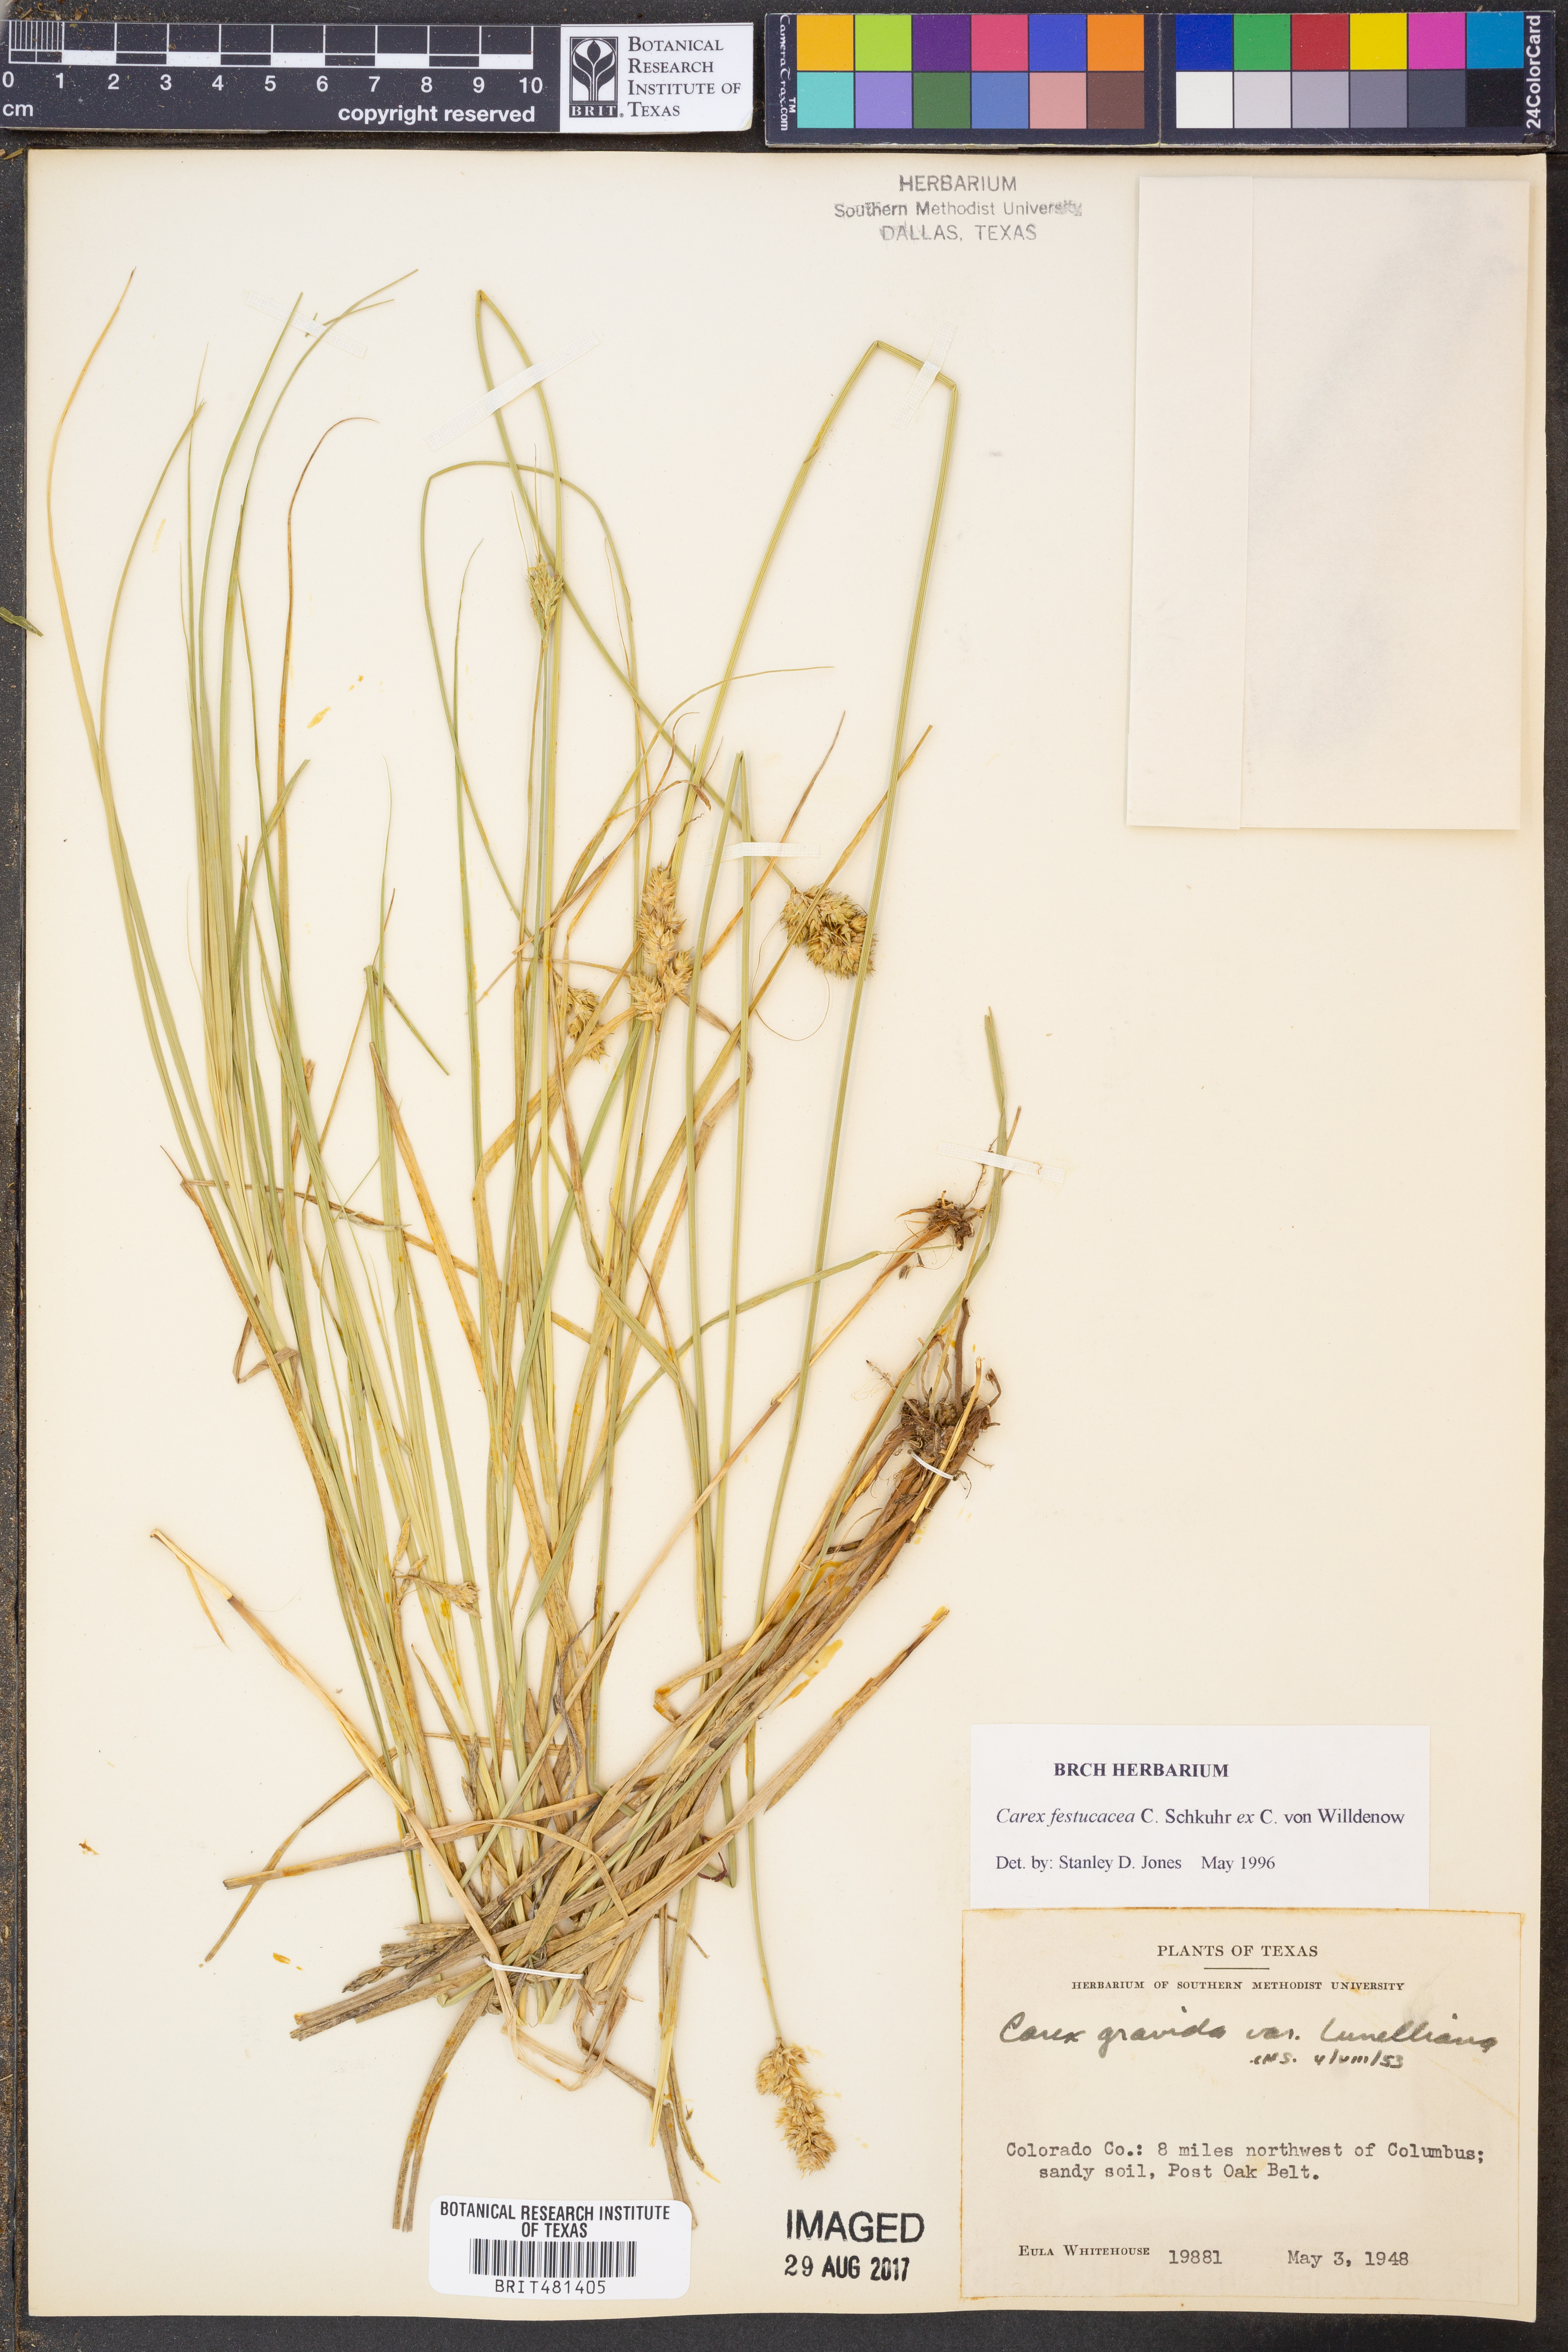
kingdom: Plantae
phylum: Tracheophyta
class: Liliopsida
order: Poales
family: Cyperaceae
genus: Carex
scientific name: Carex macloviana
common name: Falkland island sedge
